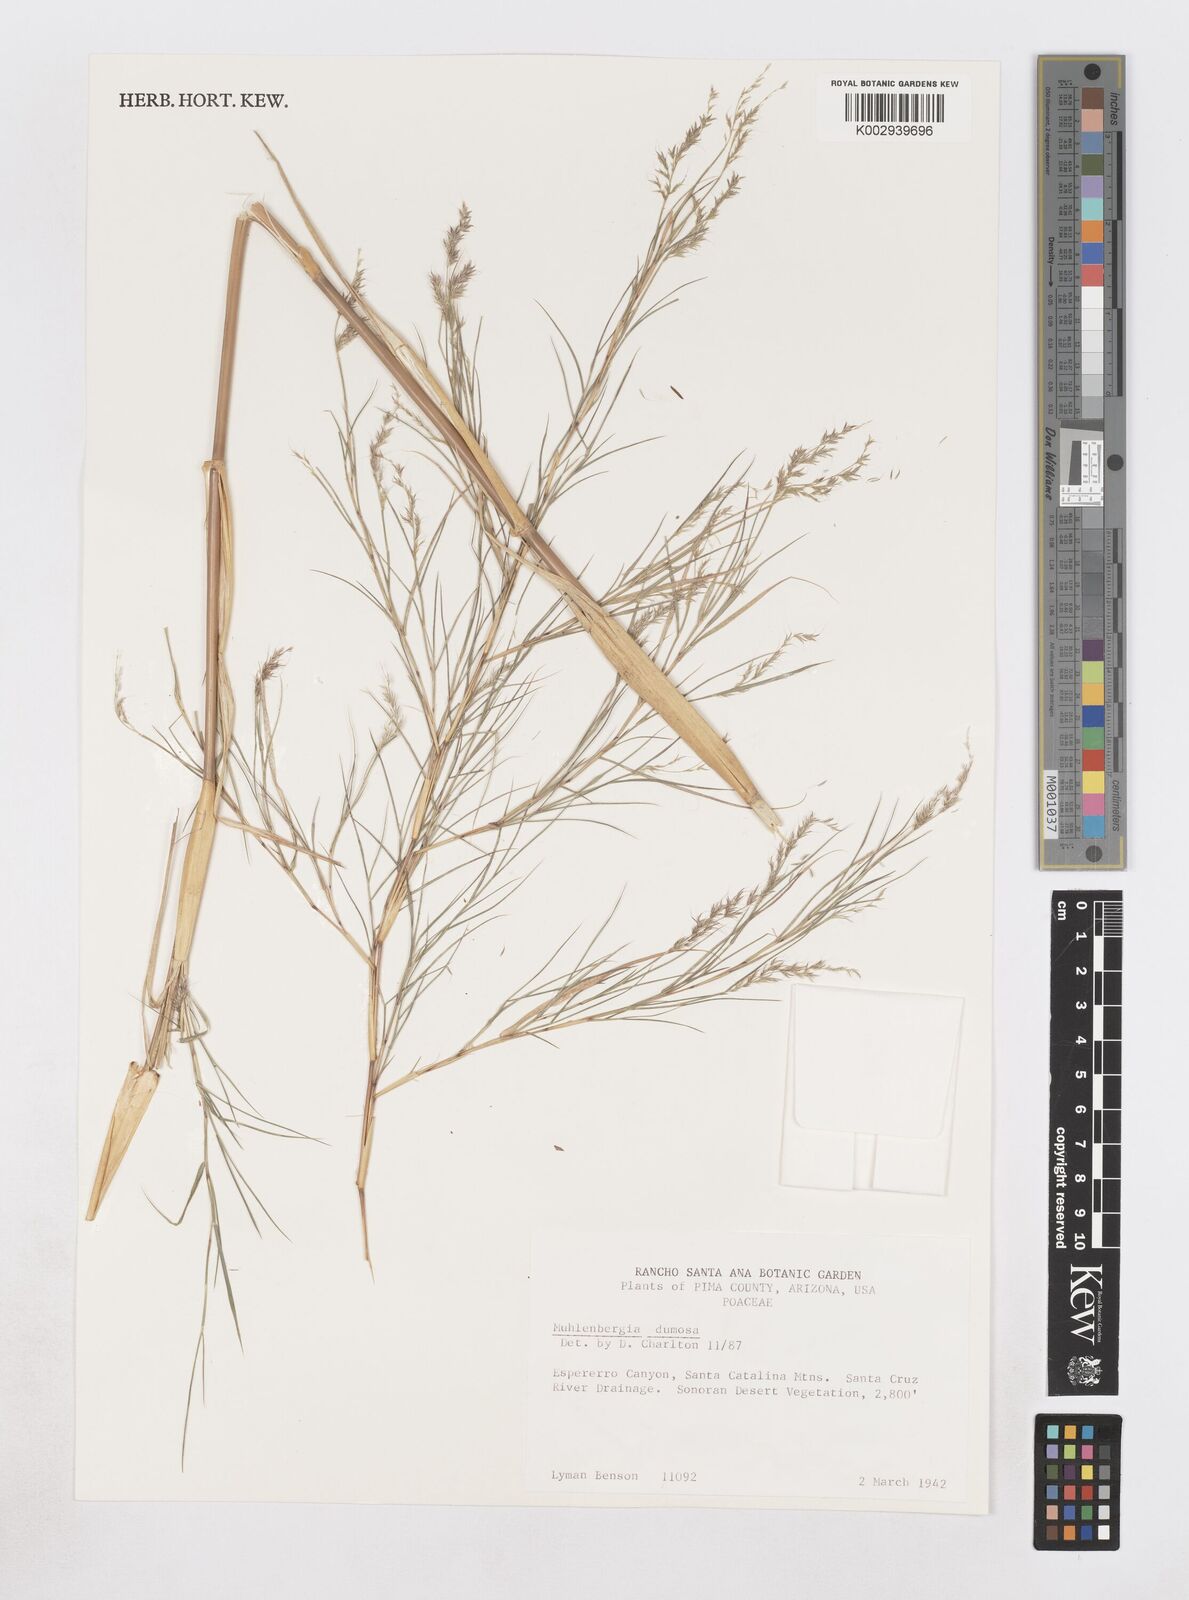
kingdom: Plantae
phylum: Tracheophyta
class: Liliopsida
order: Poales
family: Poaceae
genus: Muhlenbergia
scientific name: Muhlenbergia dumosa
